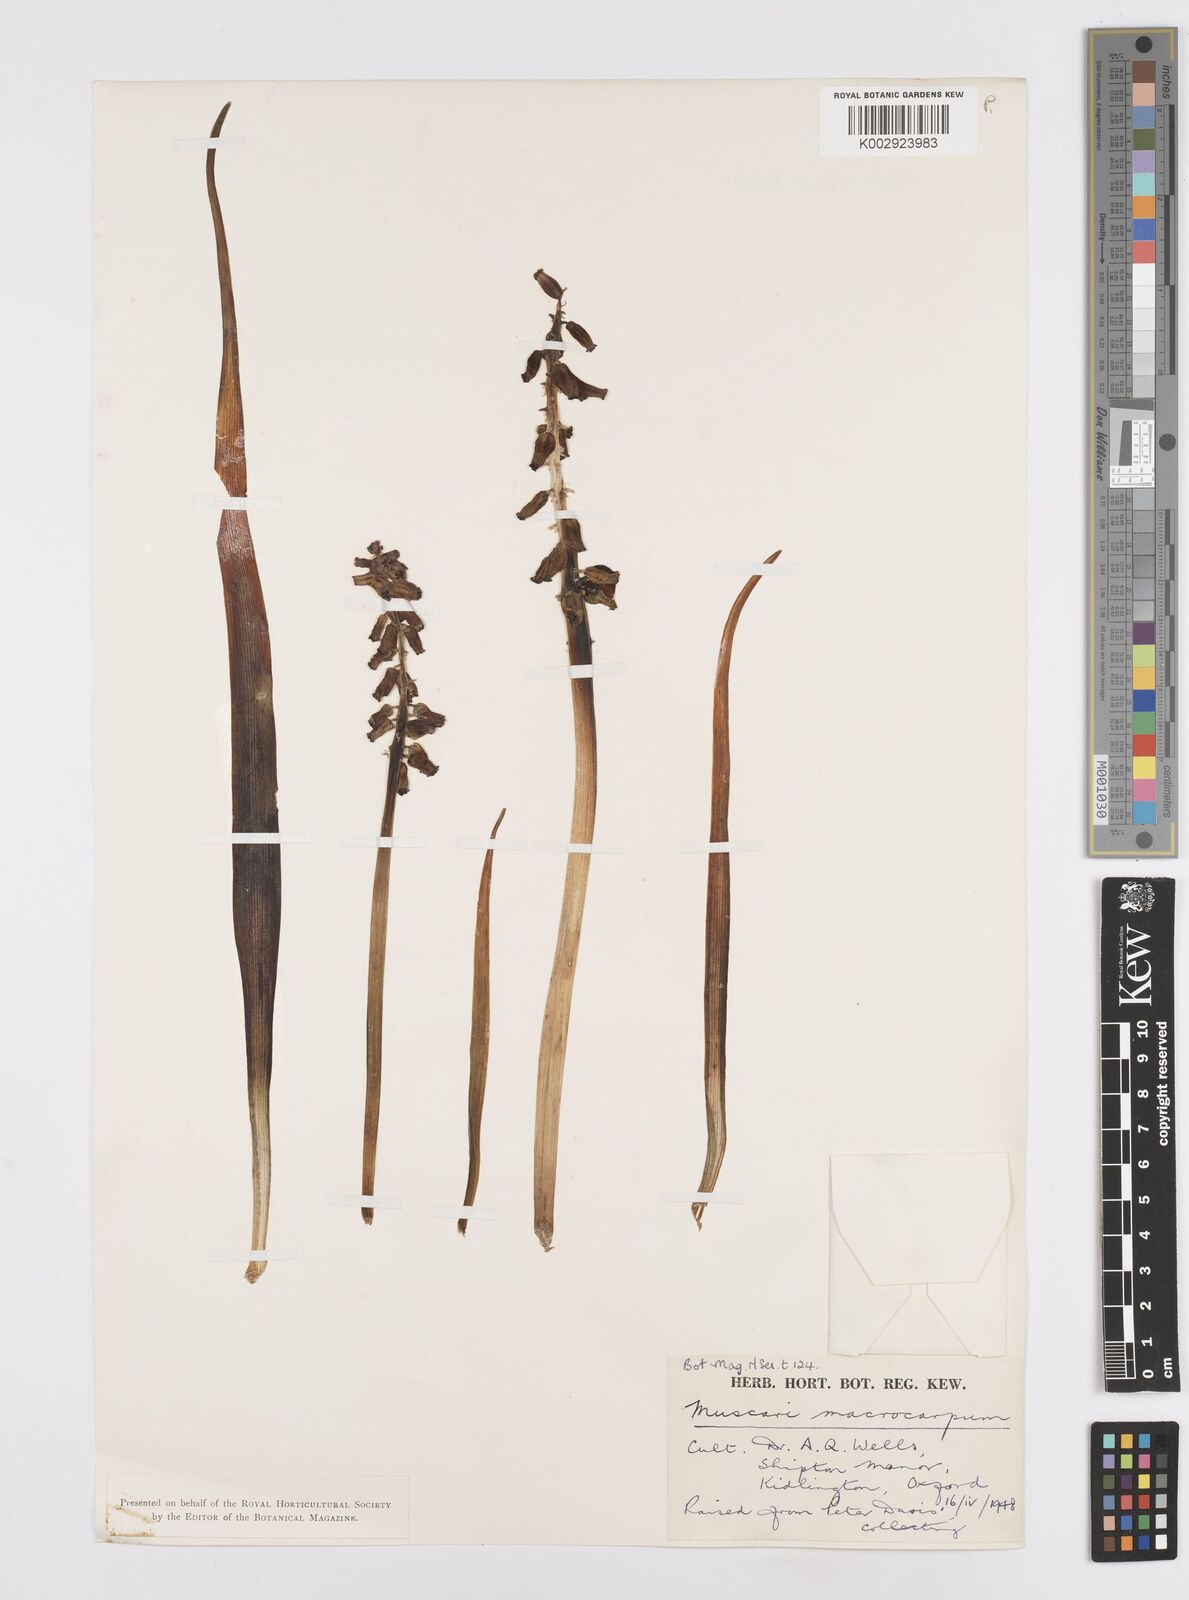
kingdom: Plantae
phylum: Tracheophyta
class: Liliopsida
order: Asparagales
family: Asparagaceae
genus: Muscarimia
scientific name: Muscarimia macrocarpa
